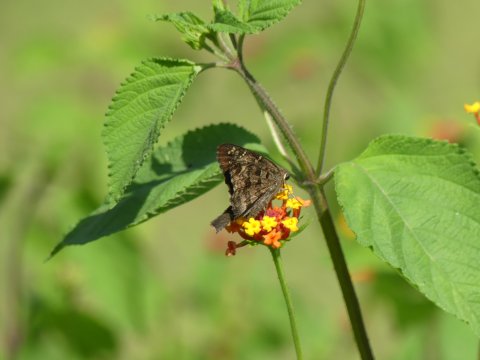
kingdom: Animalia
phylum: Arthropoda
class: Insecta
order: Lepidoptera
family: Hesperiidae
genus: Urbanus
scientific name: Urbanus dorantes
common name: Dorantes Longtail
